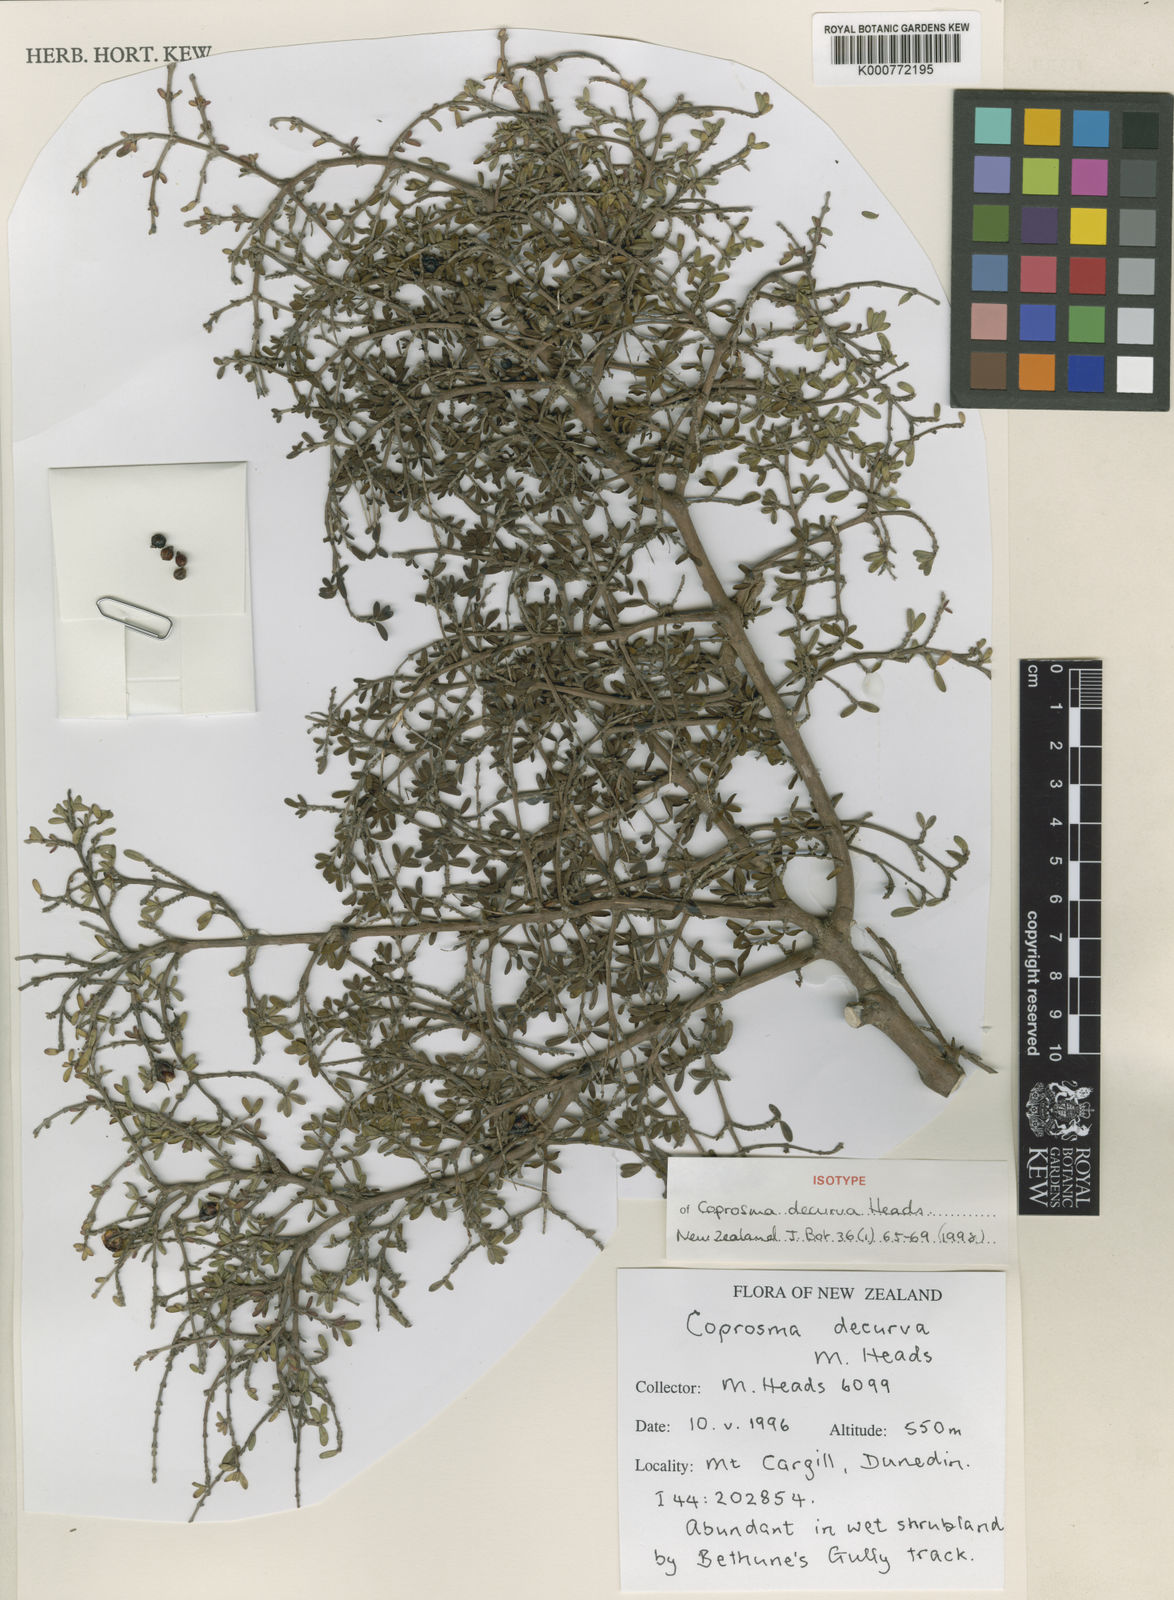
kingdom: Plantae
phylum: Tracheophyta
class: Magnoliopsida
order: Gentianales
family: Rubiaceae
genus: Coprosma
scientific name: Coprosma decurva
